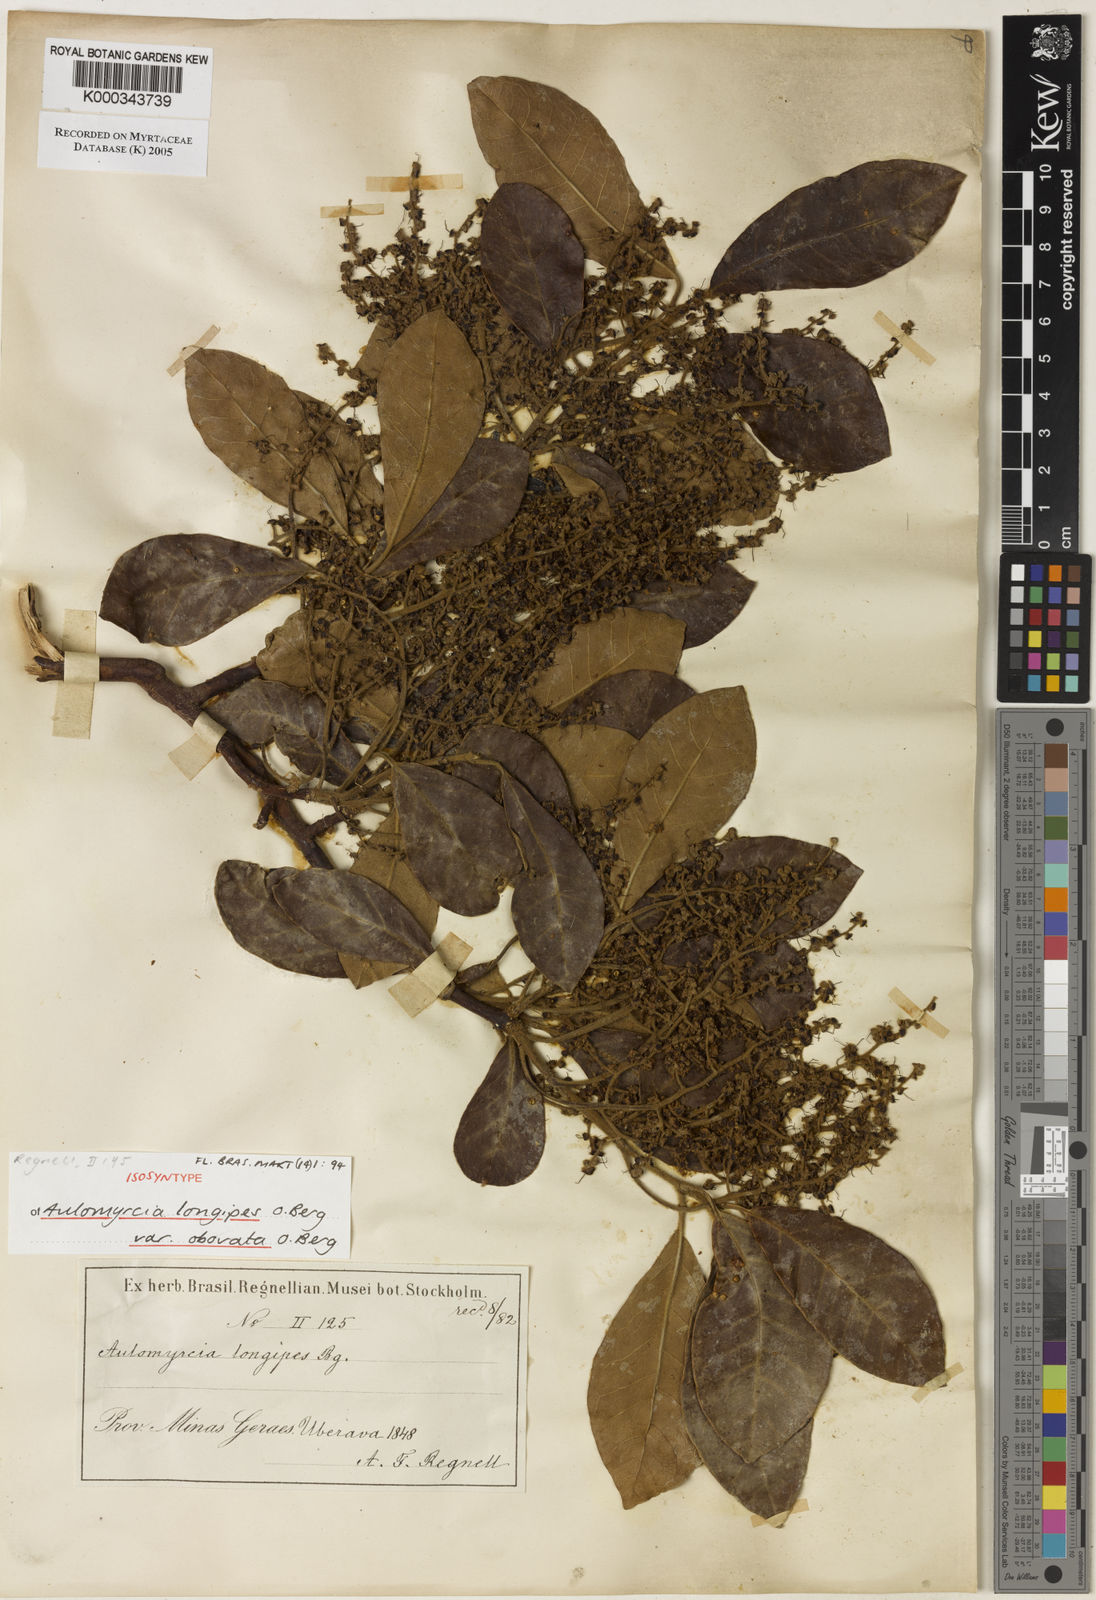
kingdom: Plantae
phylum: Tracheophyta
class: Magnoliopsida
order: Myrtales
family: Myrtaceae
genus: Myrcia
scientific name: Myrcia tomentosa
